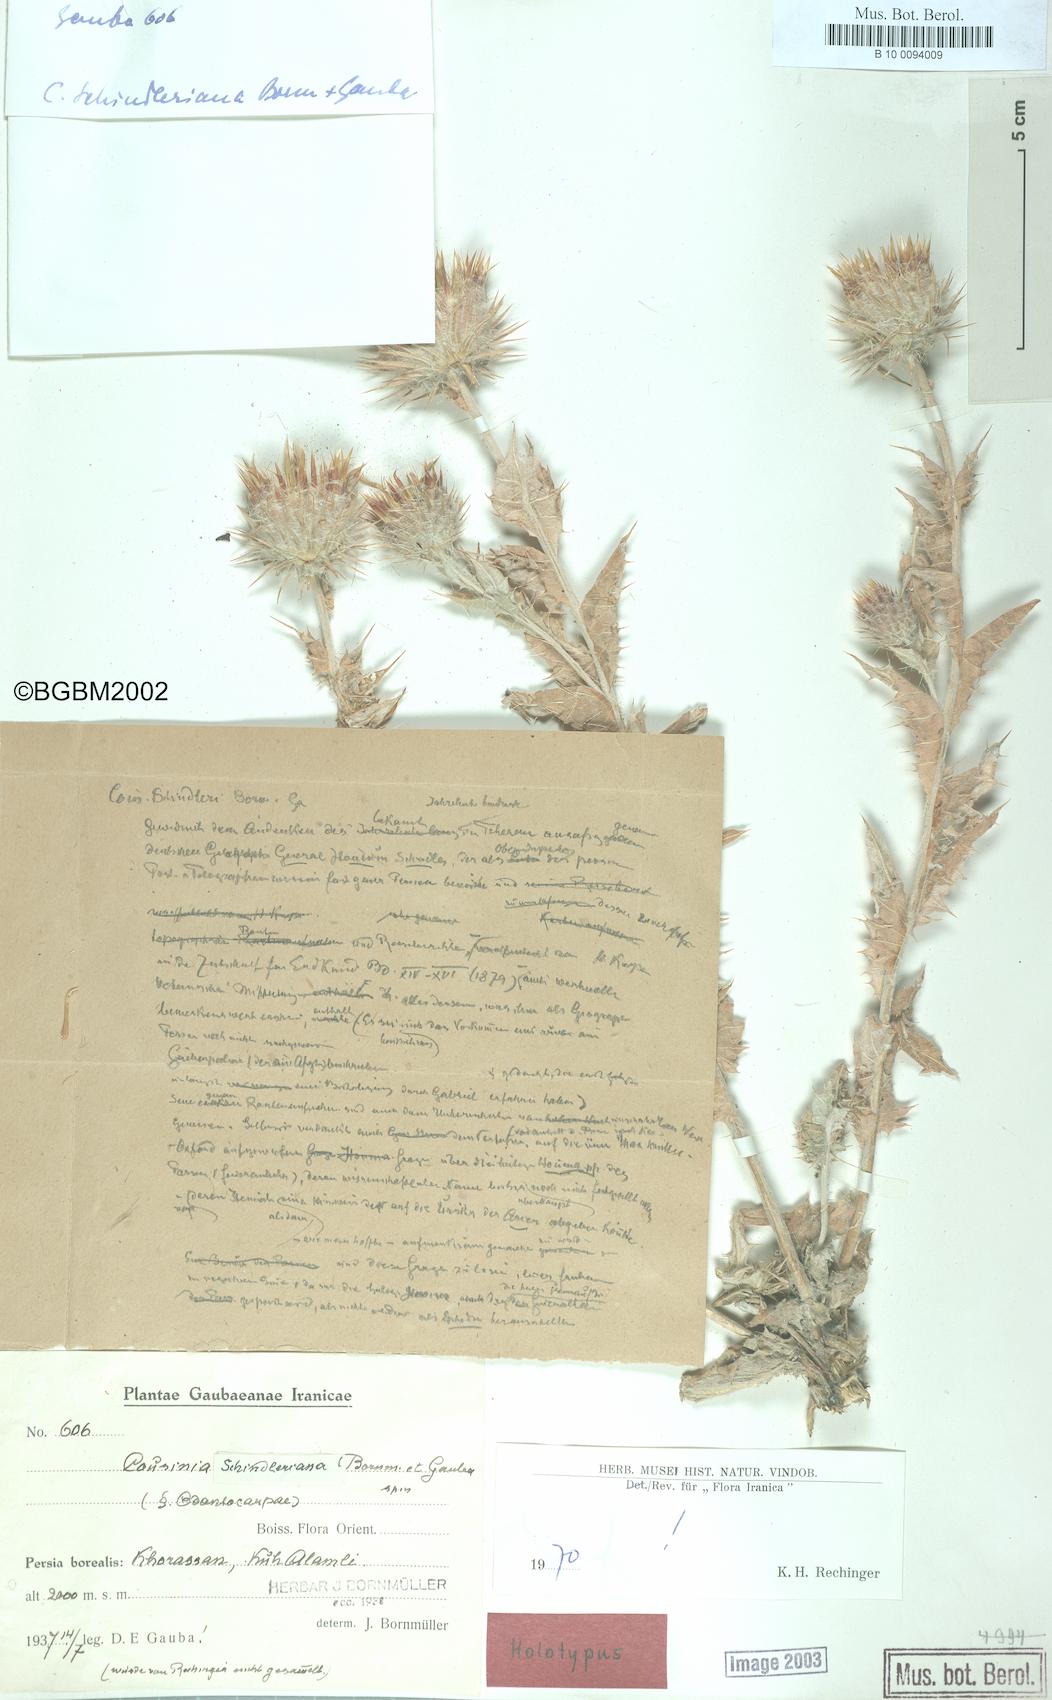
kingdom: Plantae
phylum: Tracheophyta
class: Magnoliopsida
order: Asterales
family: Asteraceae
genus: Cousinia
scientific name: Cousinia schindleriana
